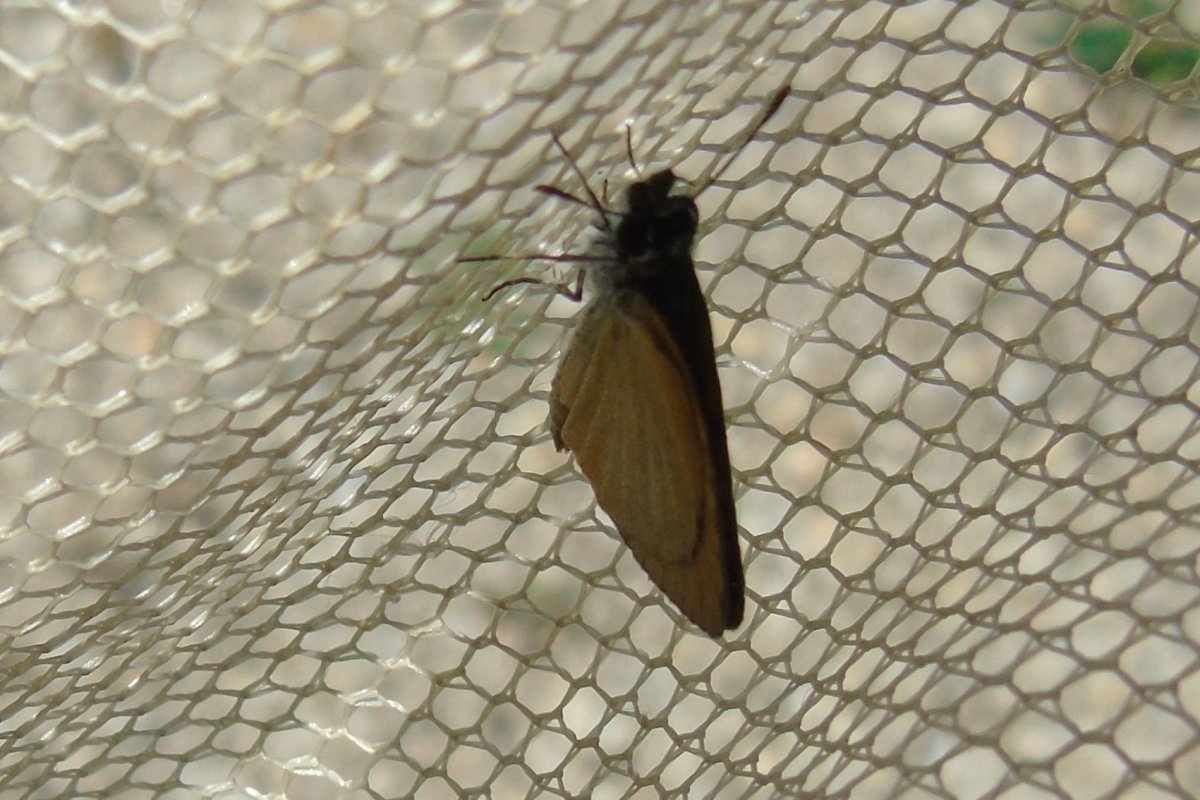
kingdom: Animalia
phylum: Arthropoda
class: Insecta
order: Lepidoptera
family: Hesperiidae
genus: Ancyloxypha
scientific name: Ancyloxypha numitor
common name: Least Skipper
